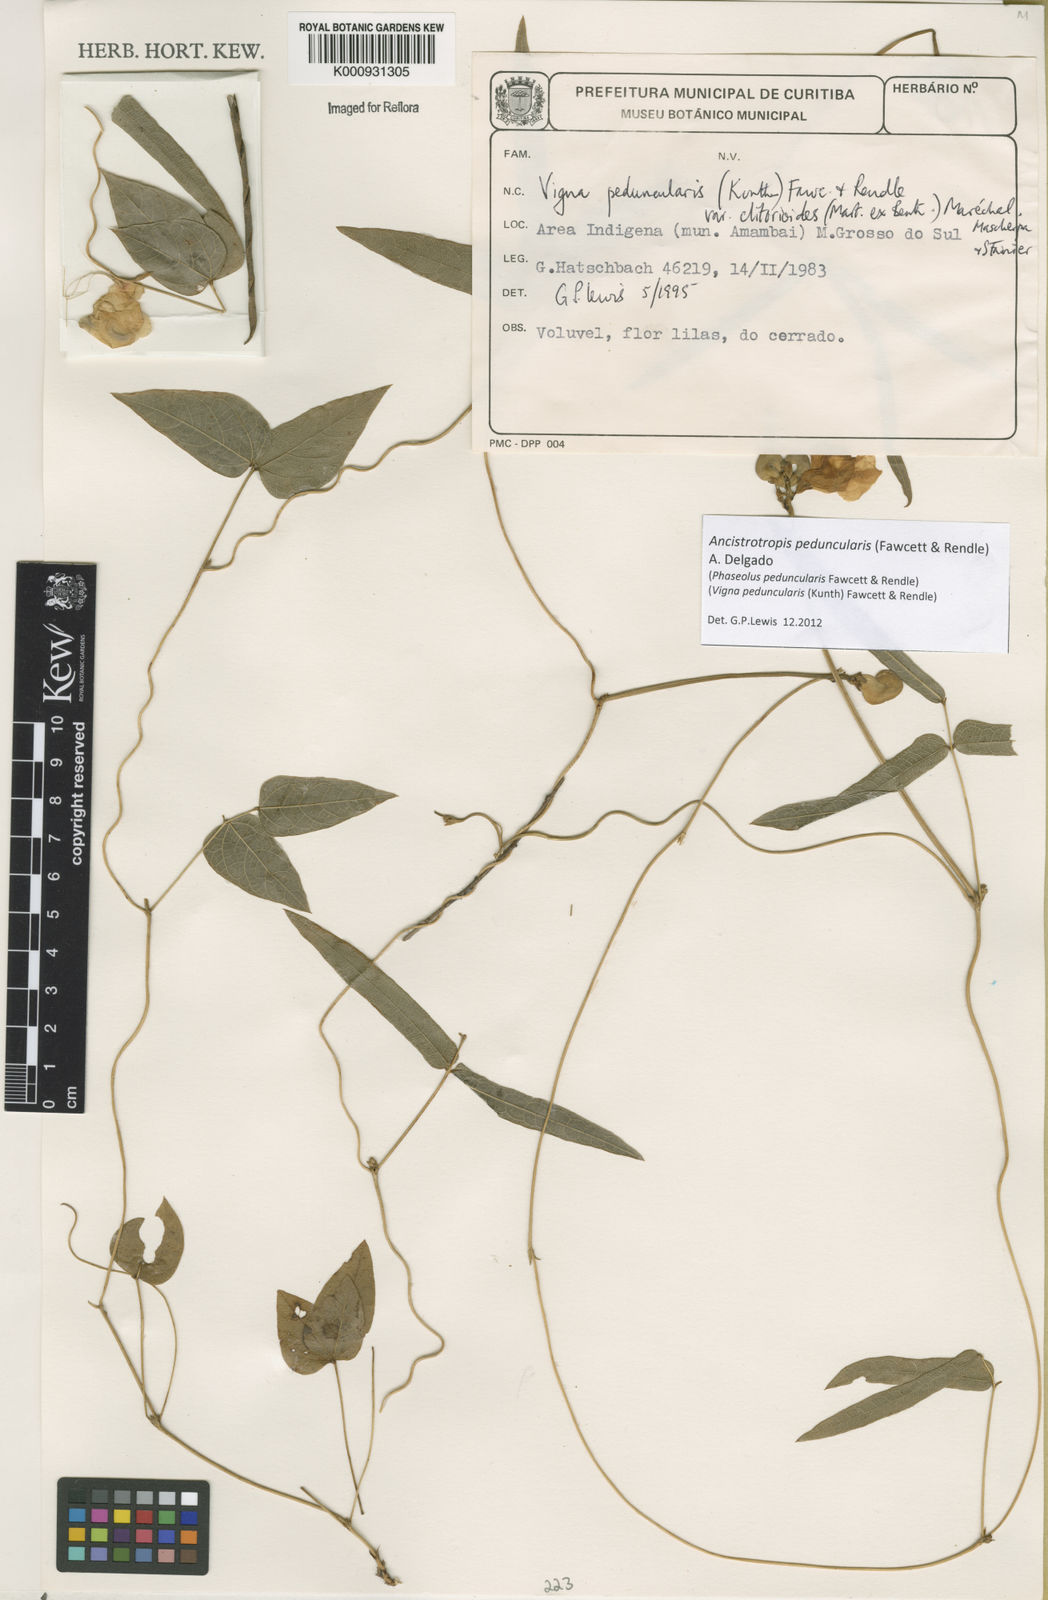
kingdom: Plantae
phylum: Tracheophyta
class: Magnoliopsida
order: Fabales
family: Fabaceae
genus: Ancistrotropis
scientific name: Ancistrotropis peduncularis
